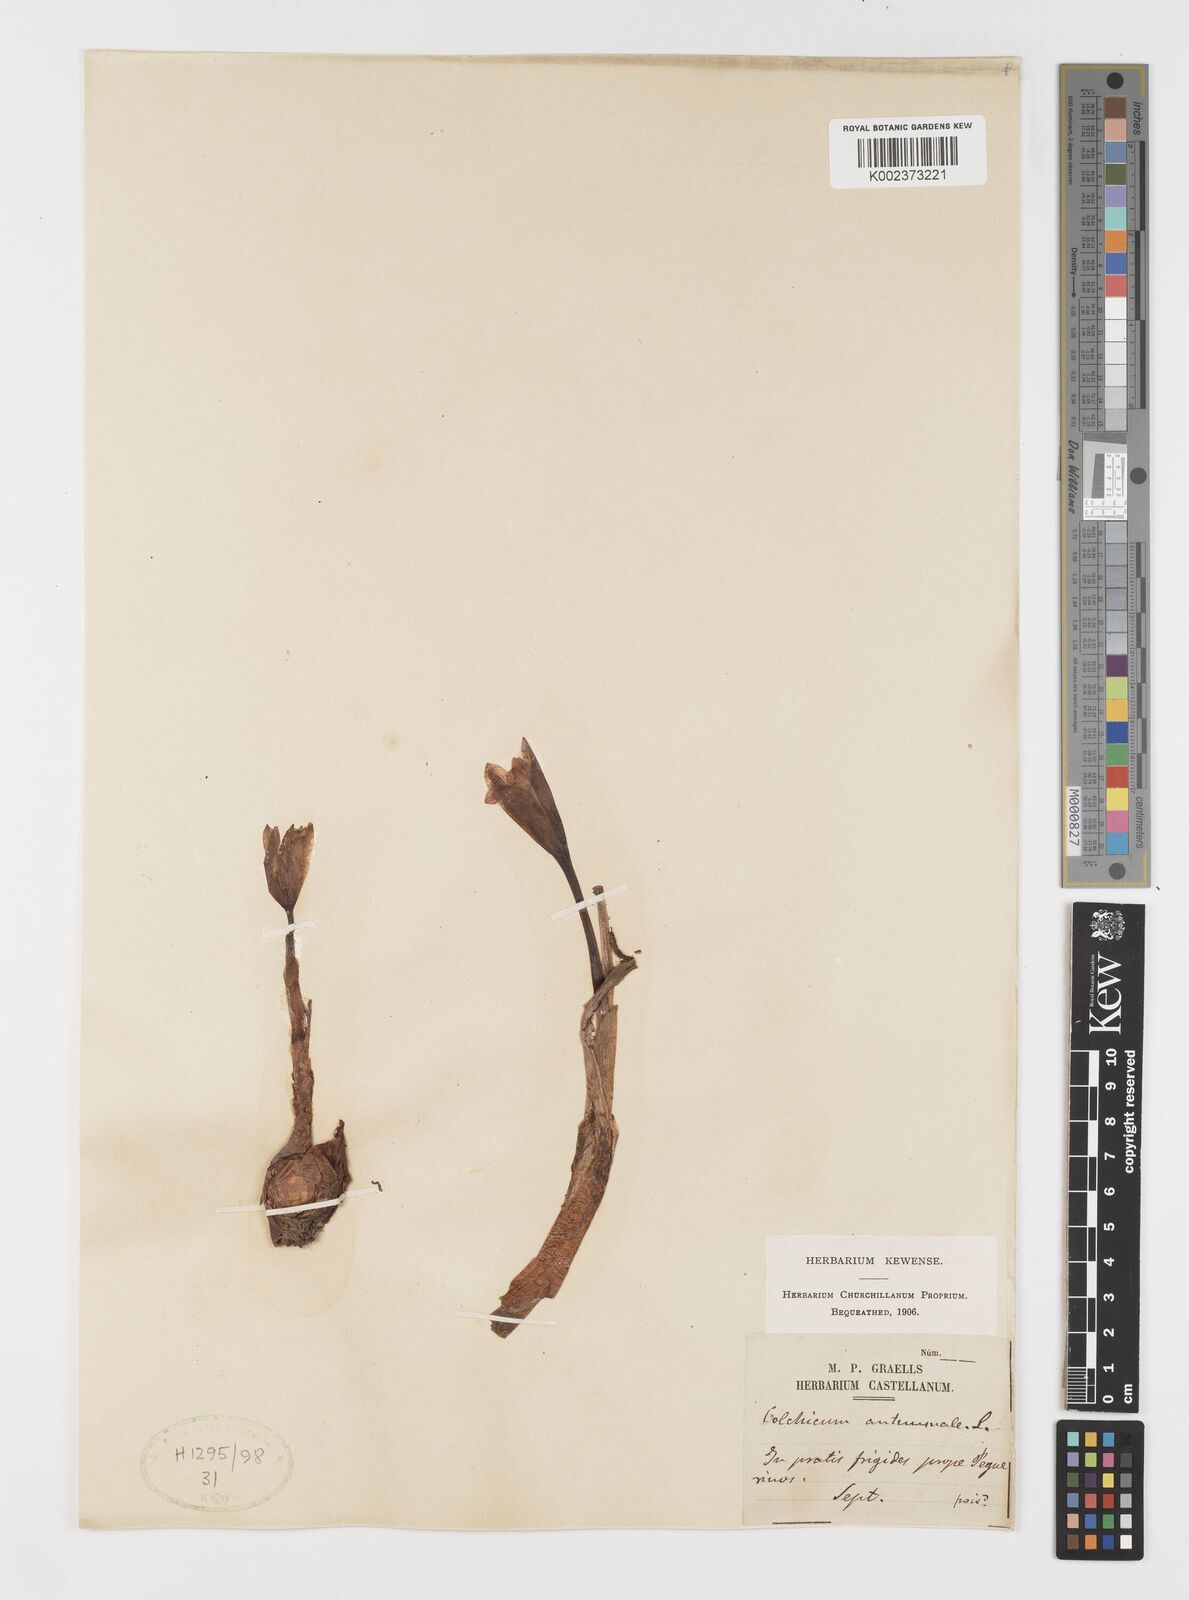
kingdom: Plantae
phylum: Tracheophyta
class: Liliopsida
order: Liliales
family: Colchicaceae
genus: Colchicum
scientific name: Colchicum autumnale
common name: Autumn crocus
